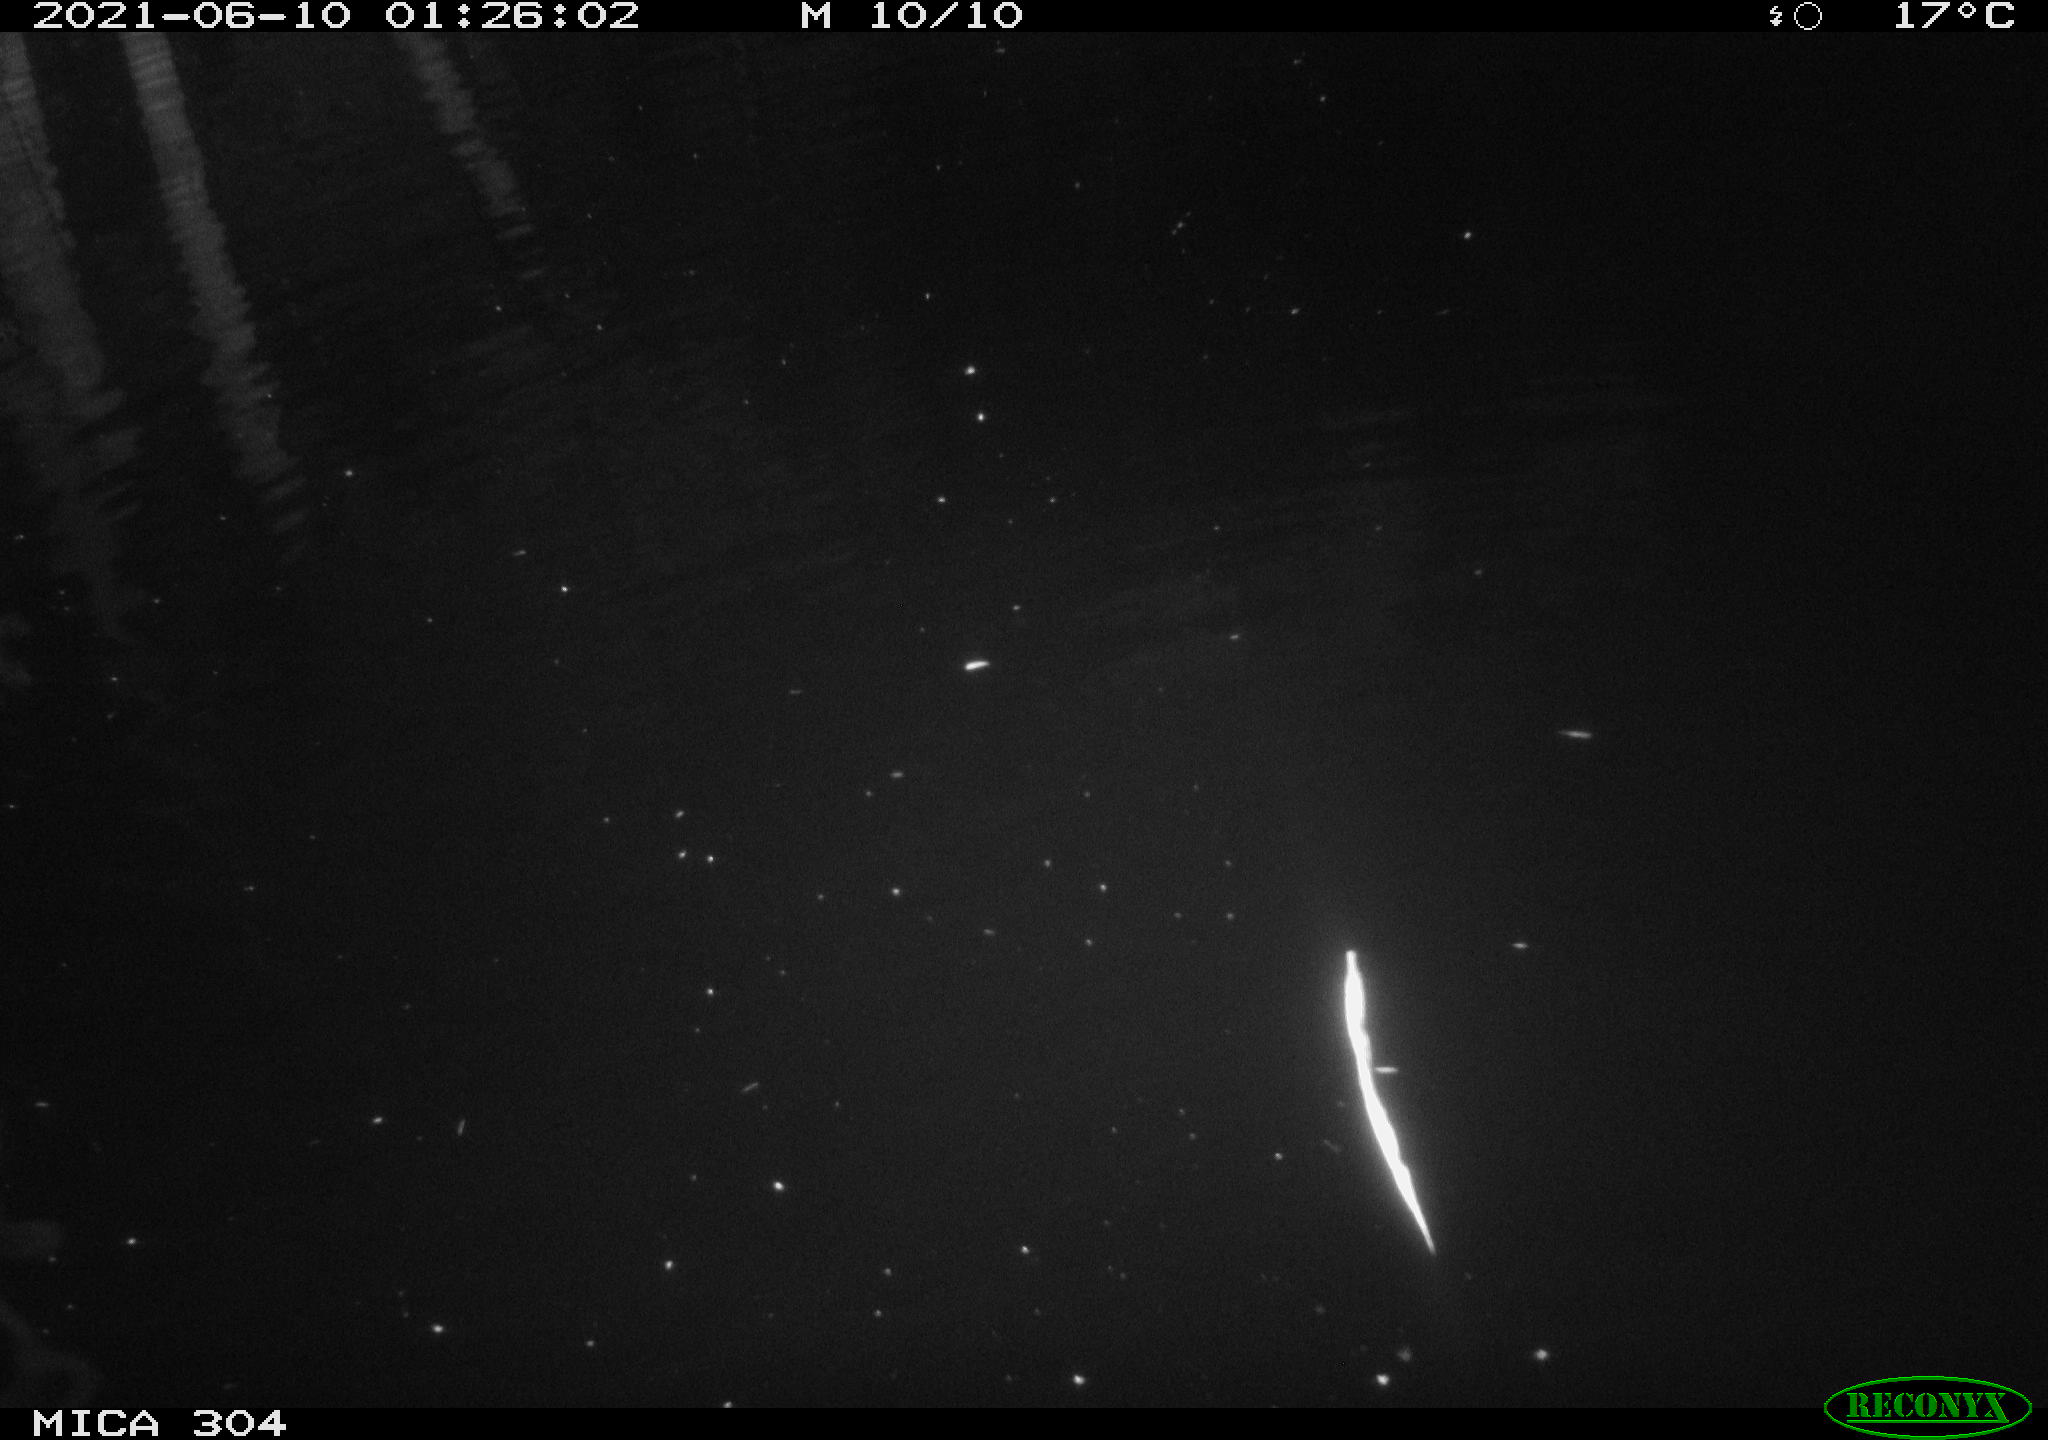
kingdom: Animalia
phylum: Chordata
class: Mammalia
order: Rodentia
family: Cricetidae
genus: Ondatra
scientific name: Ondatra zibethicus
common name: Muskrat
